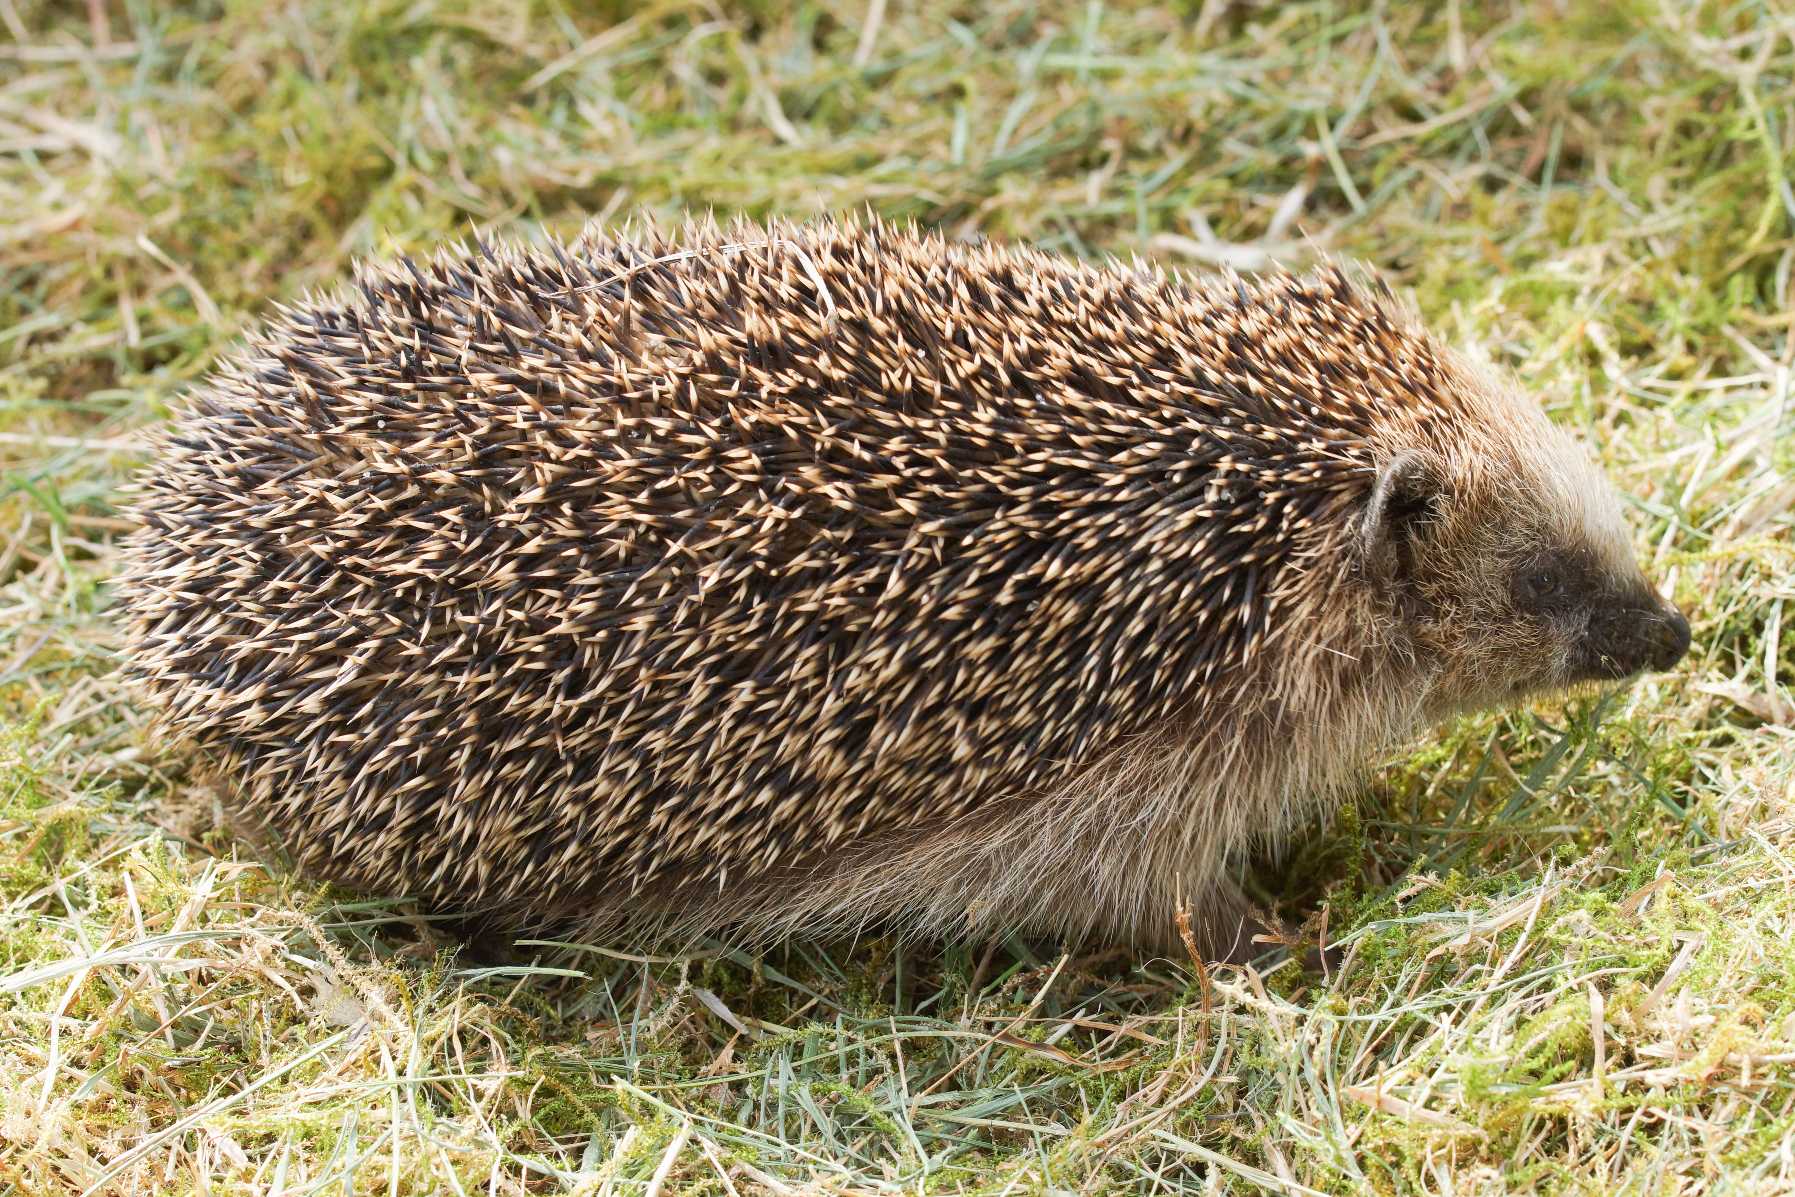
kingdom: Animalia
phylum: Chordata
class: Mammalia
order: Erinaceomorpha
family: Erinaceidae
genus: Erinaceus
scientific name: Erinaceus europaeus
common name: Pindsvin
